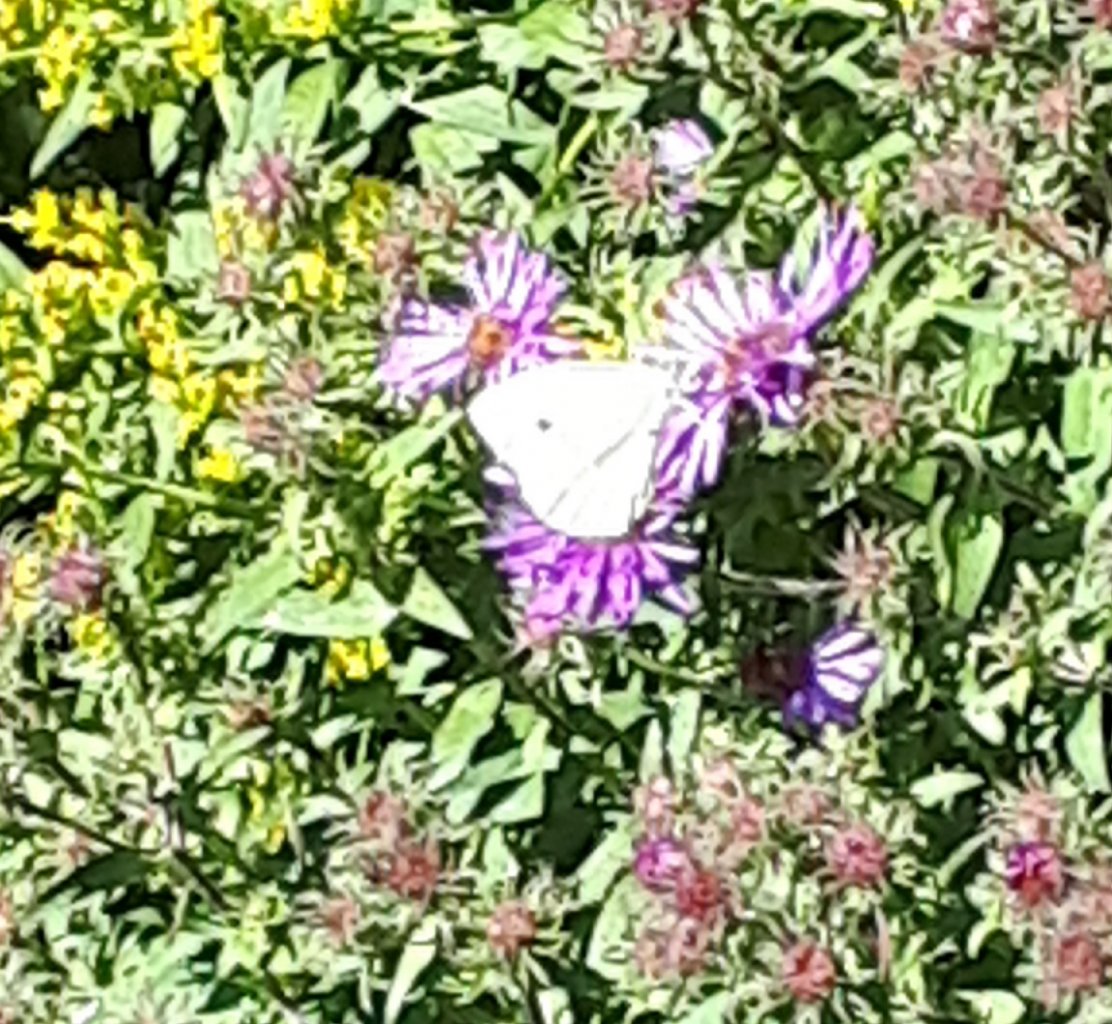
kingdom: Animalia
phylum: Arthropoda
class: Insecta
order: Lepidoptera
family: Pieridae
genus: Pieris
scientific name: Pieris rapae
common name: Cabbage White
